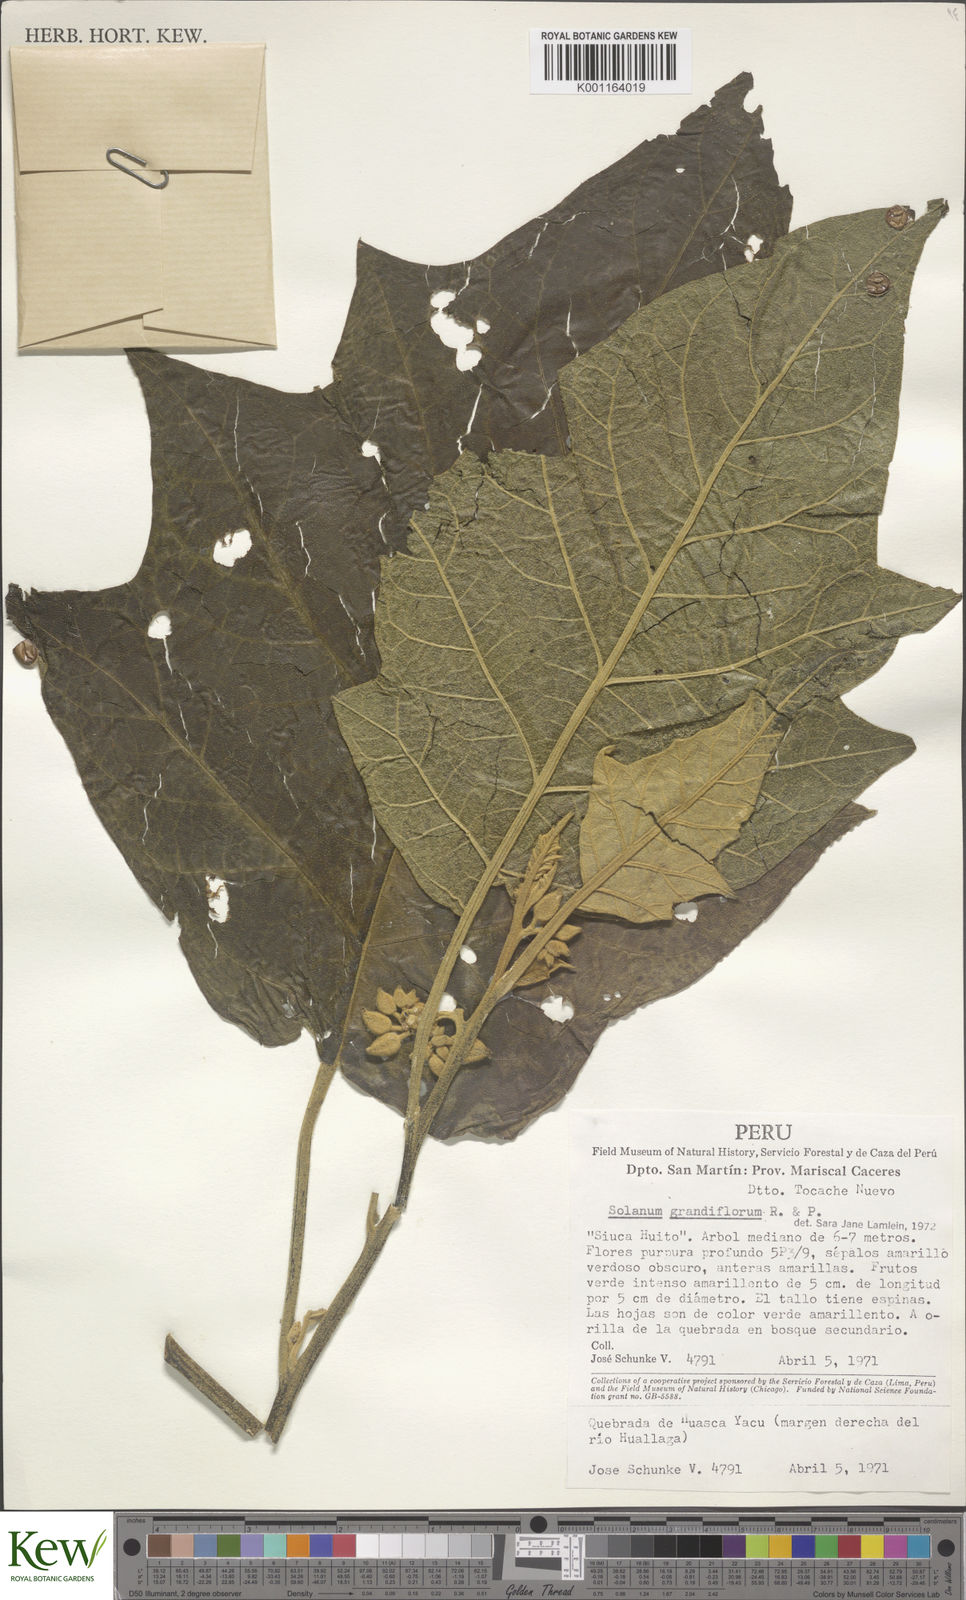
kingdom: Plantae
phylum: Tracheophyta
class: Magnoliopsida
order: Solanales
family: Solanaceae
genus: Solanum
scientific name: Solanum grandiflorum
